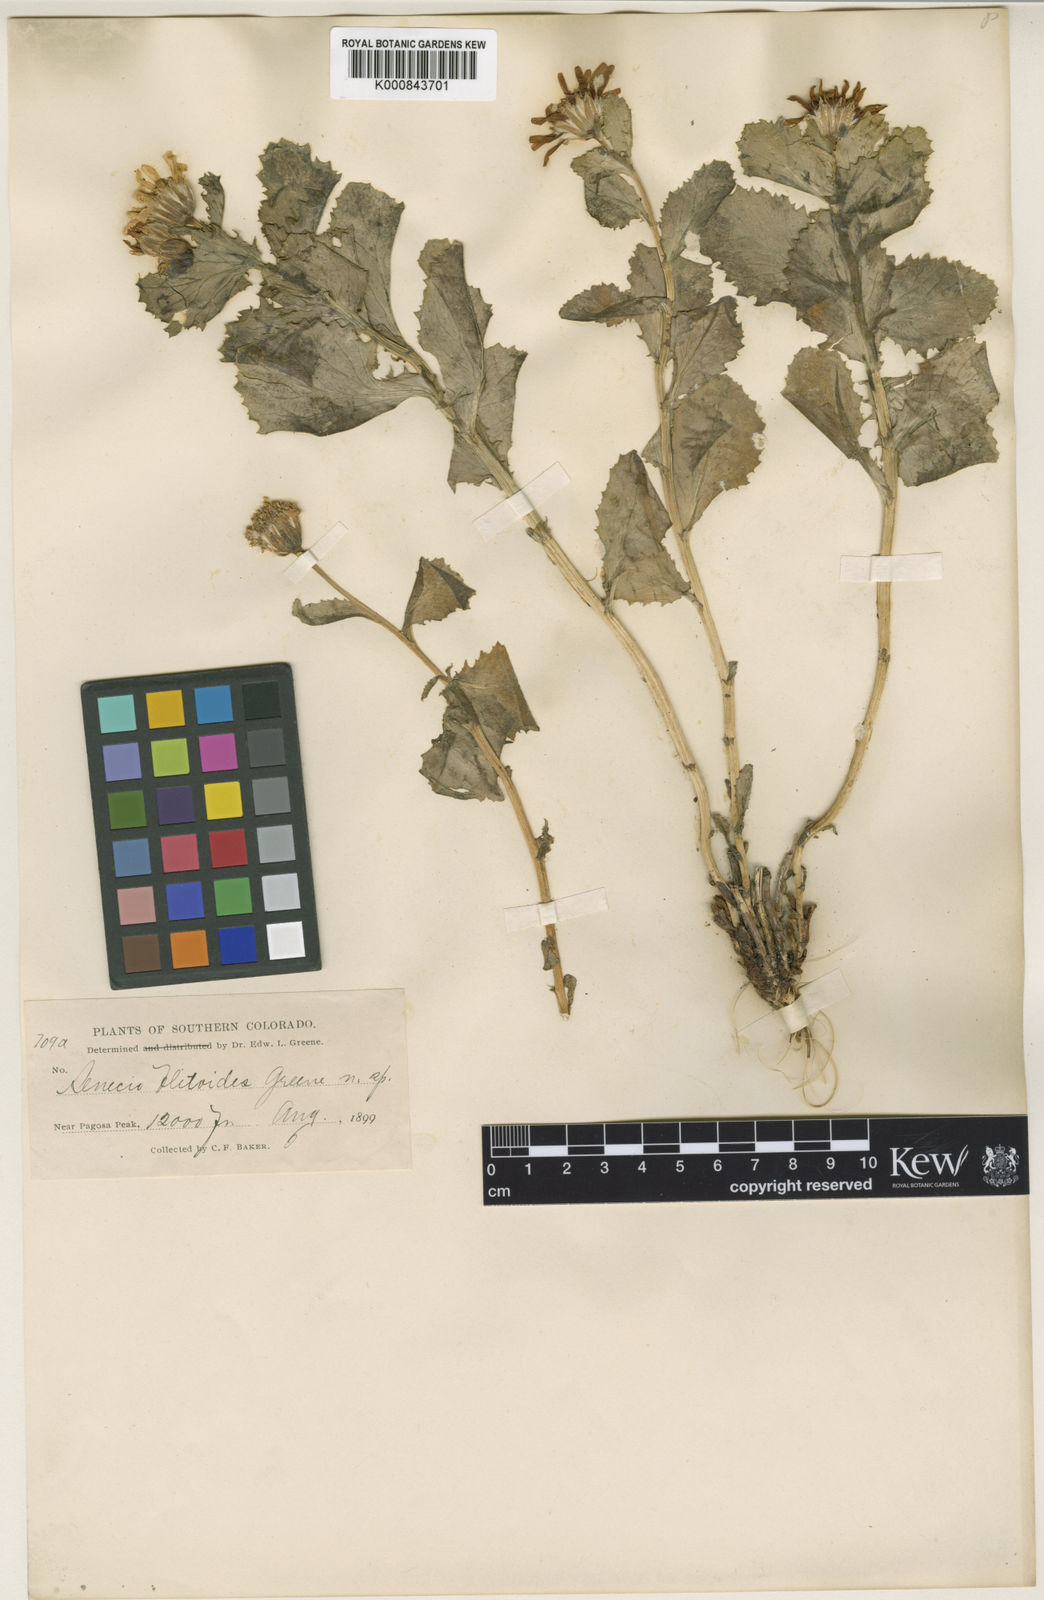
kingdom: Plantae
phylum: Tracheophyta
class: Magnoliopsida
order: Asterales
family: Asteraceae
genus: Senecio
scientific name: Senecio blitoides
